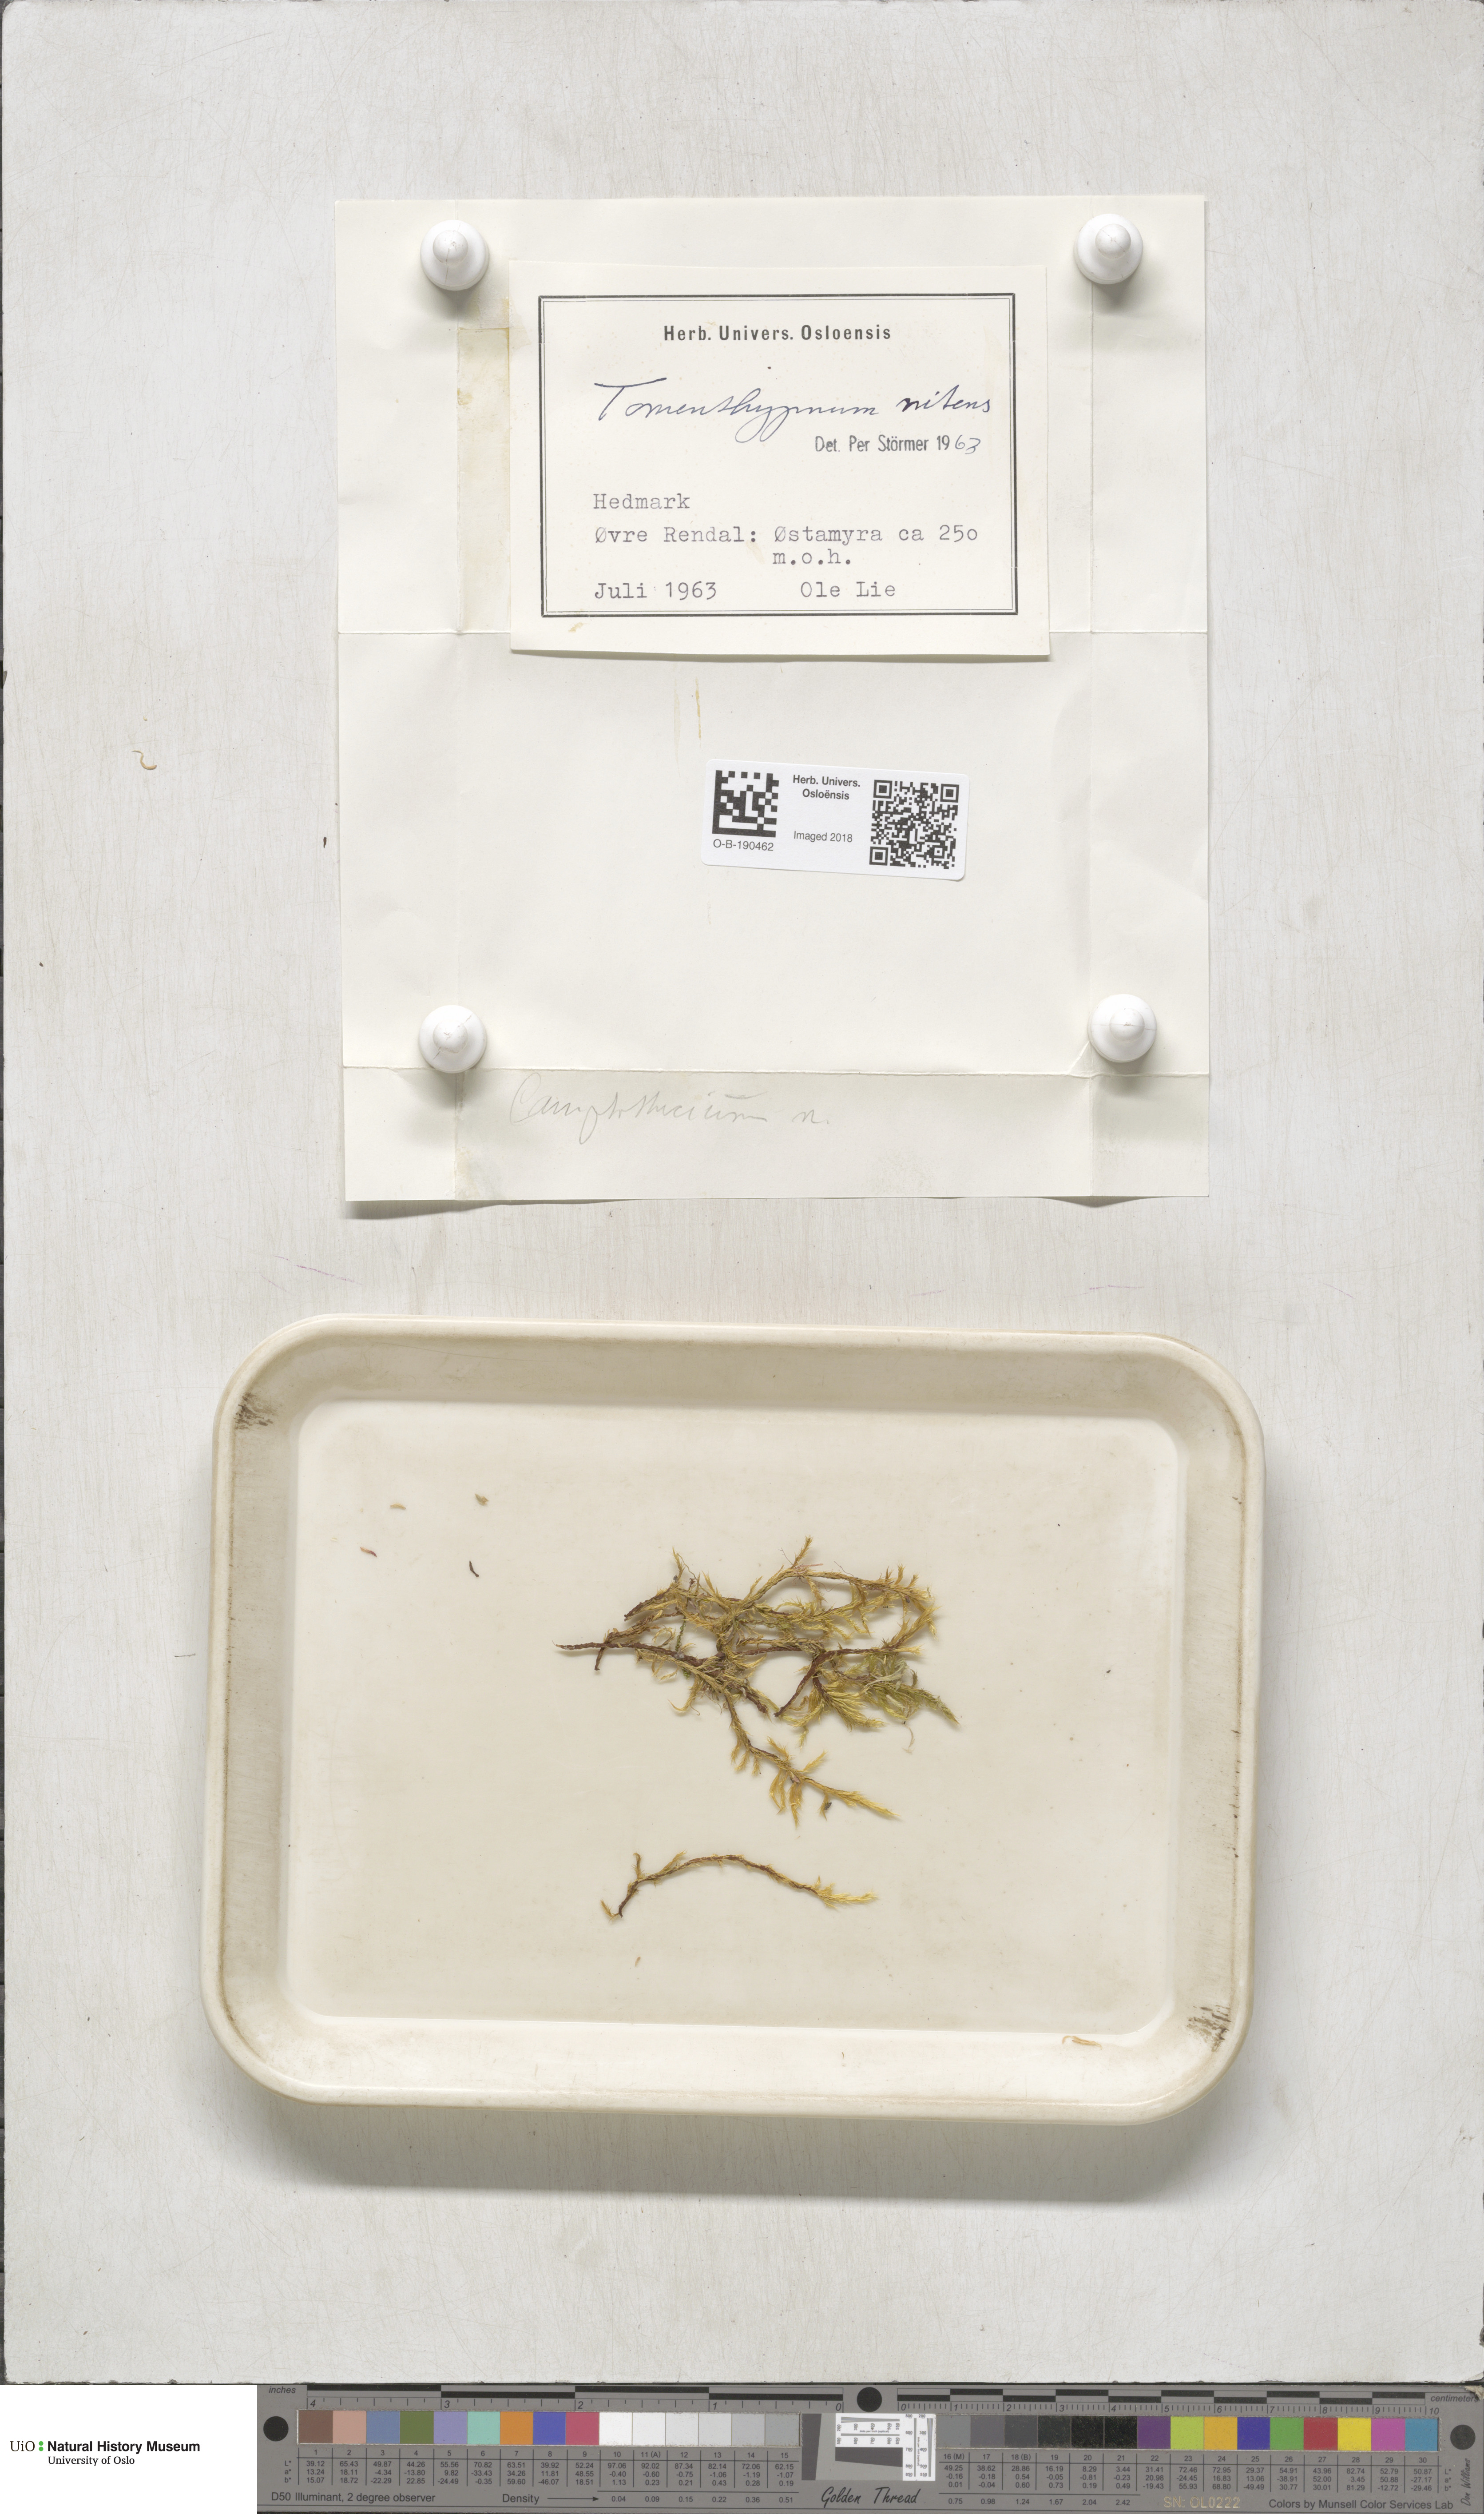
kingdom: Plantae
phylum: Bryophyta
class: Bryopsida
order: Hypnales
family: Amblystegiaceae
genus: Tomentypnum
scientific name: Tomentypnum nitens
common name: Golden fuzzy fen moss
